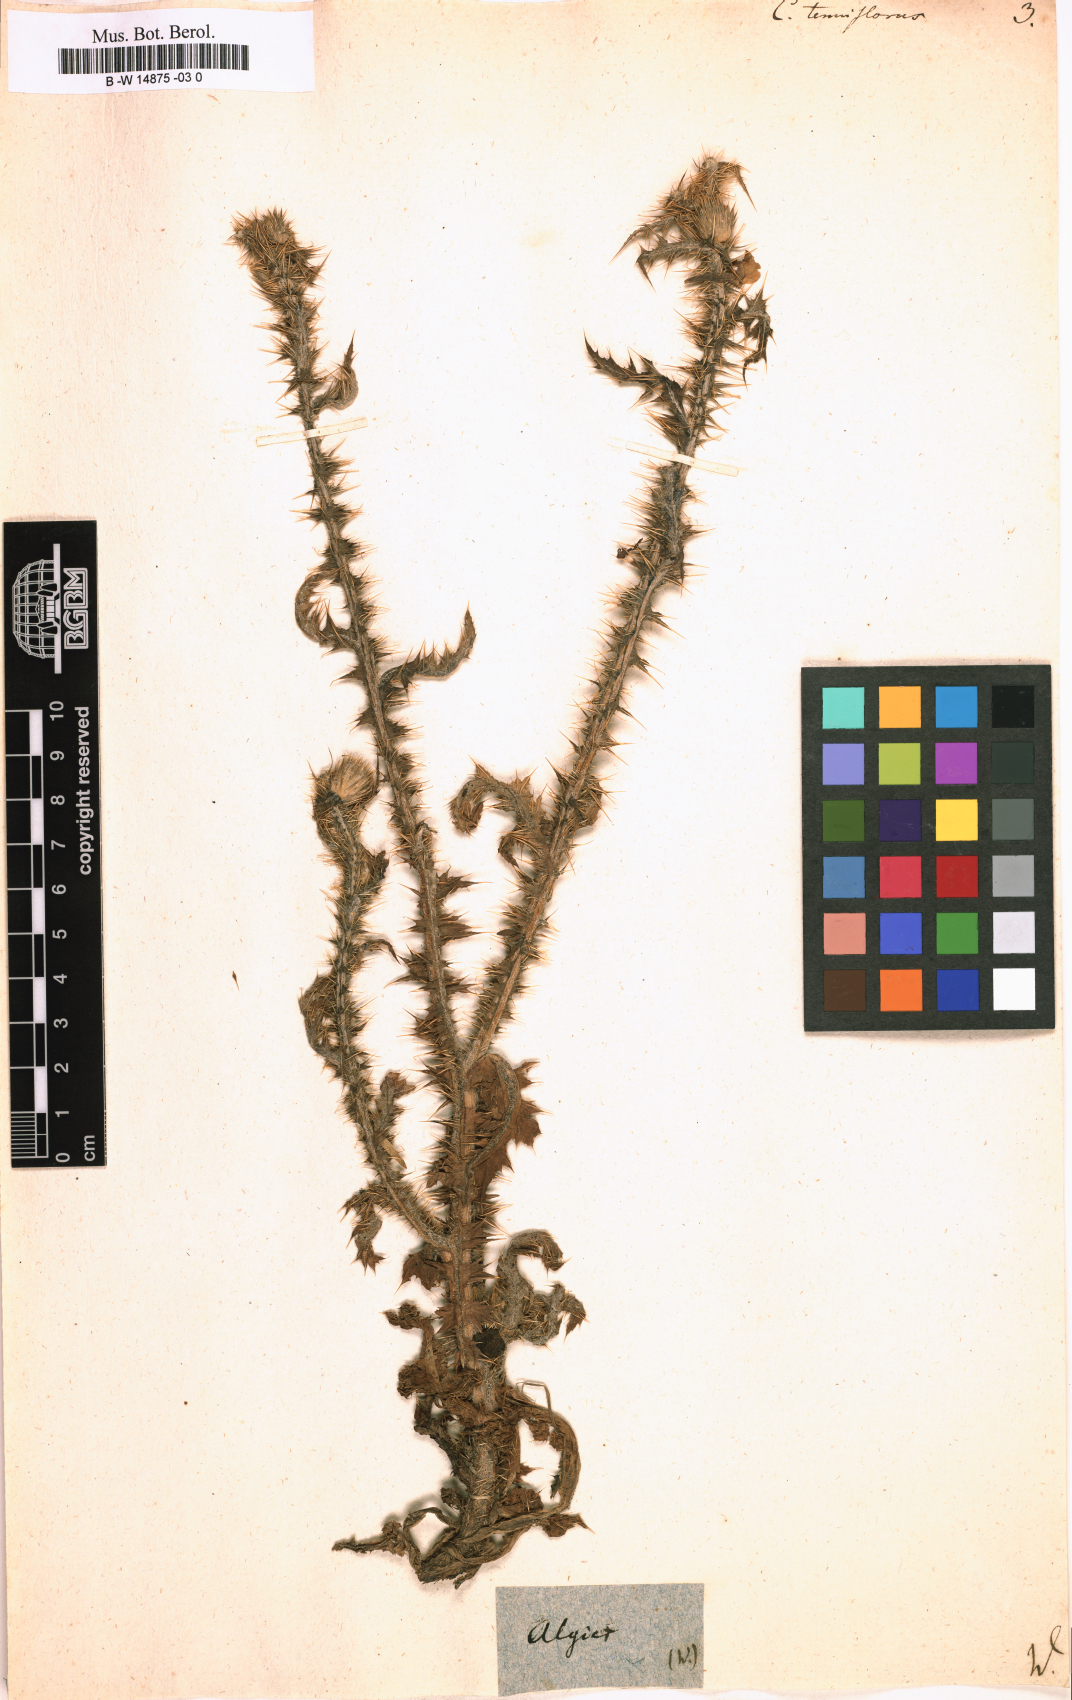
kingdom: Plantae
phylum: Tracheophyta
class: Magnoliopsida
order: Asterales
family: Asteraceae
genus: Carduus
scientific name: Carduus tenuiflorus
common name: Slender thistle
